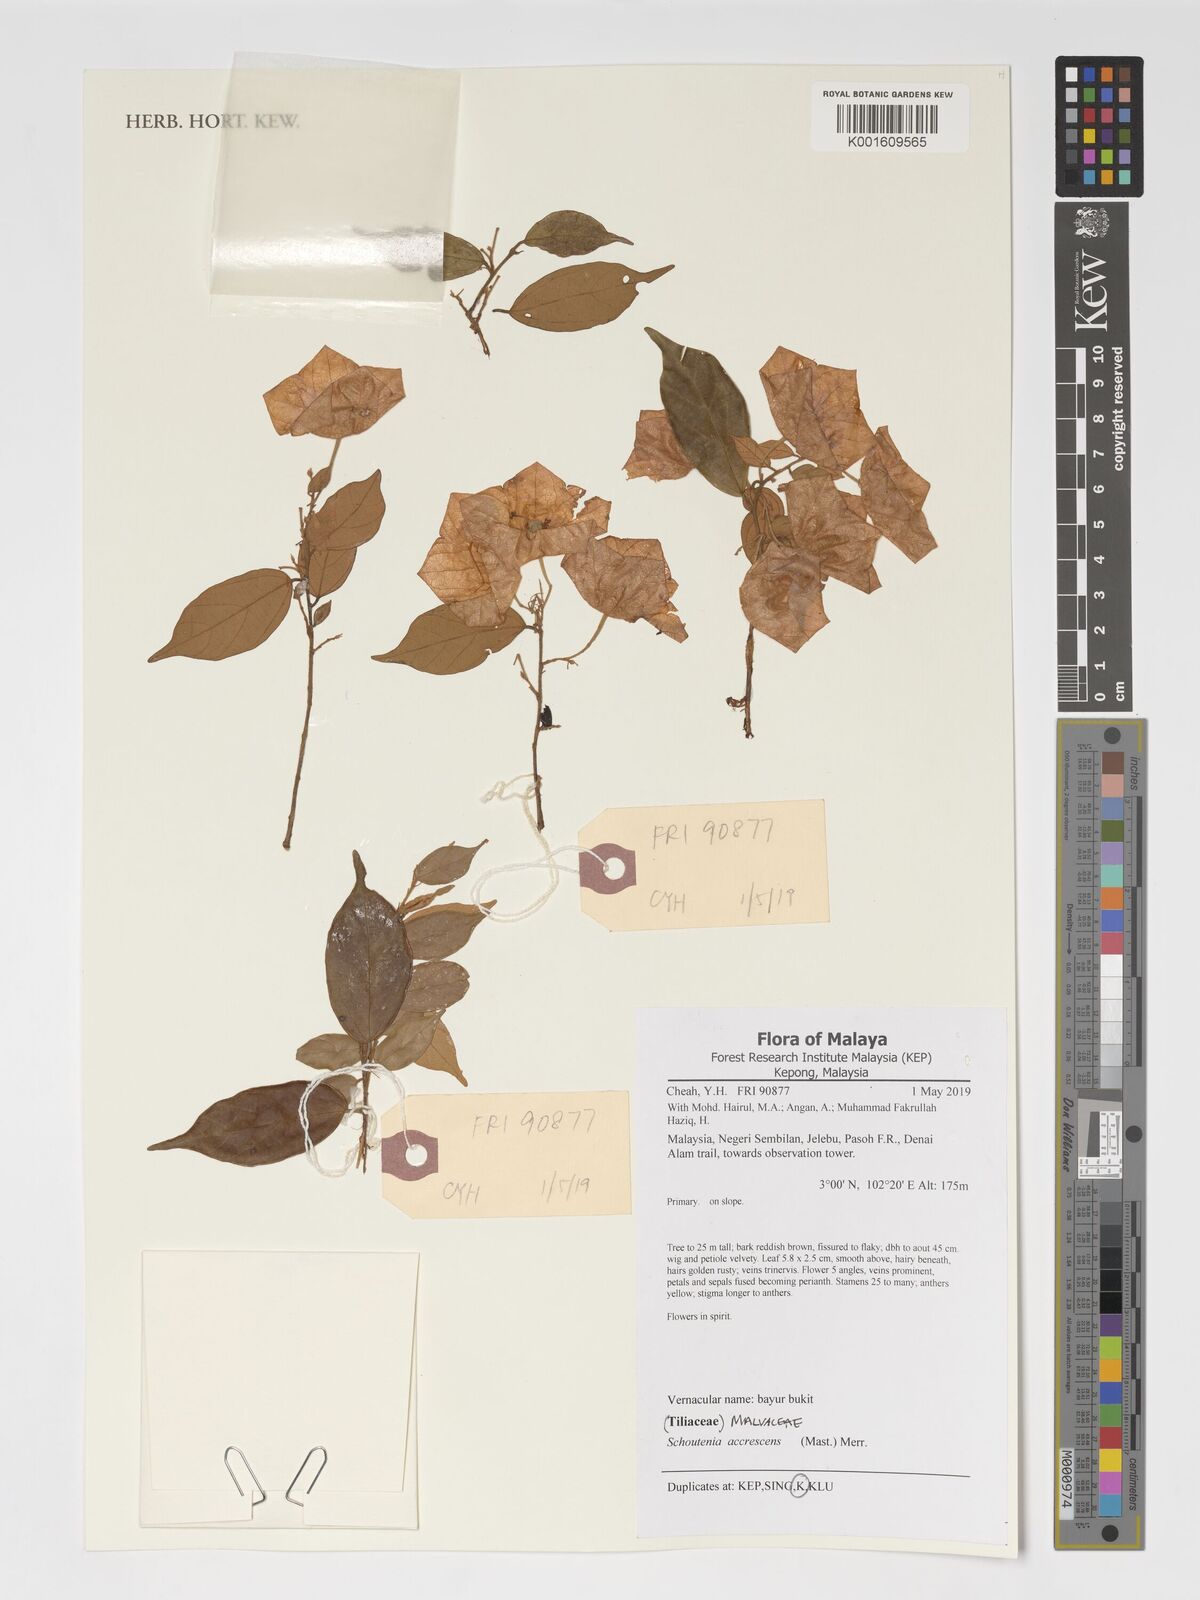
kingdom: Plantae
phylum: Tracheophyta
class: Magnoliopsida
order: Malvales
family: Malvaceae
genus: Schoutenia
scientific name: Schoutenia accrescens
